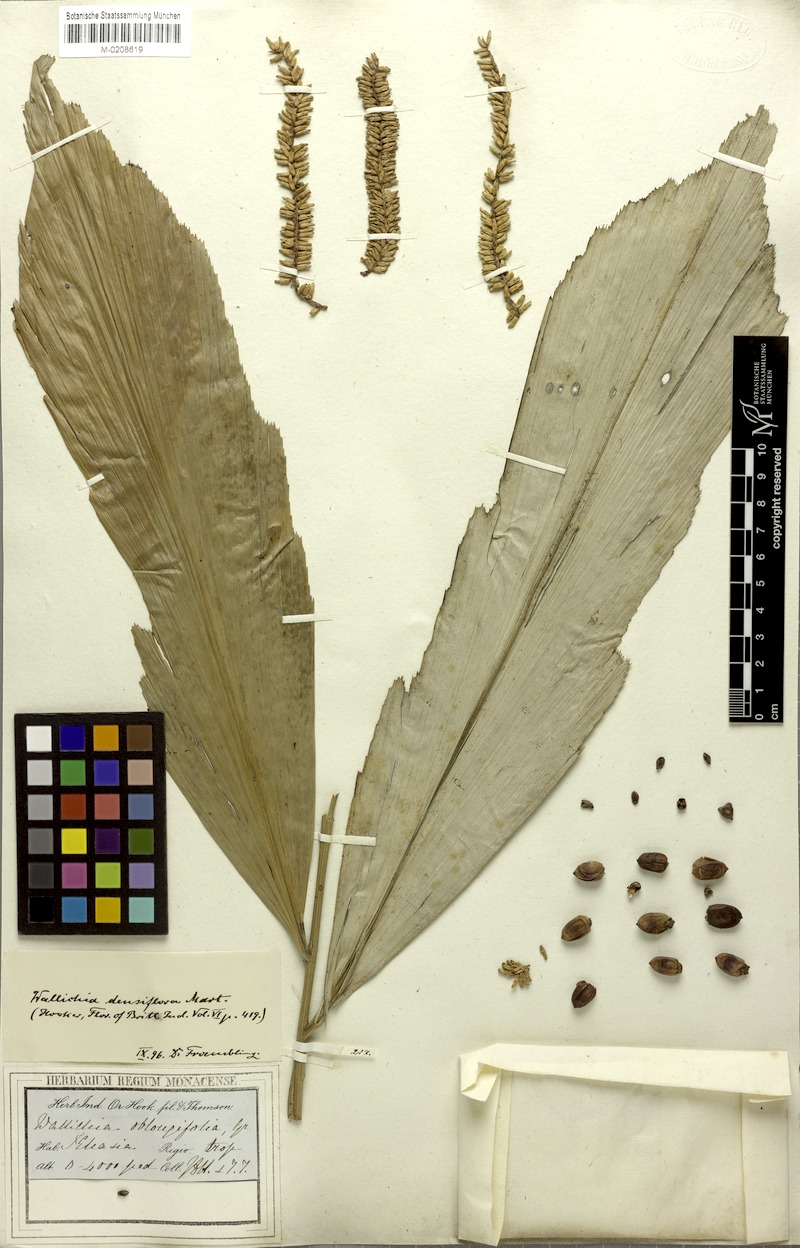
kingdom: Plantae
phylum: Tracheophyta
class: Liliopsida
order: Arecales
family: Arecaceae
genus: Wallichia
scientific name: Wallichia oblongifolia
